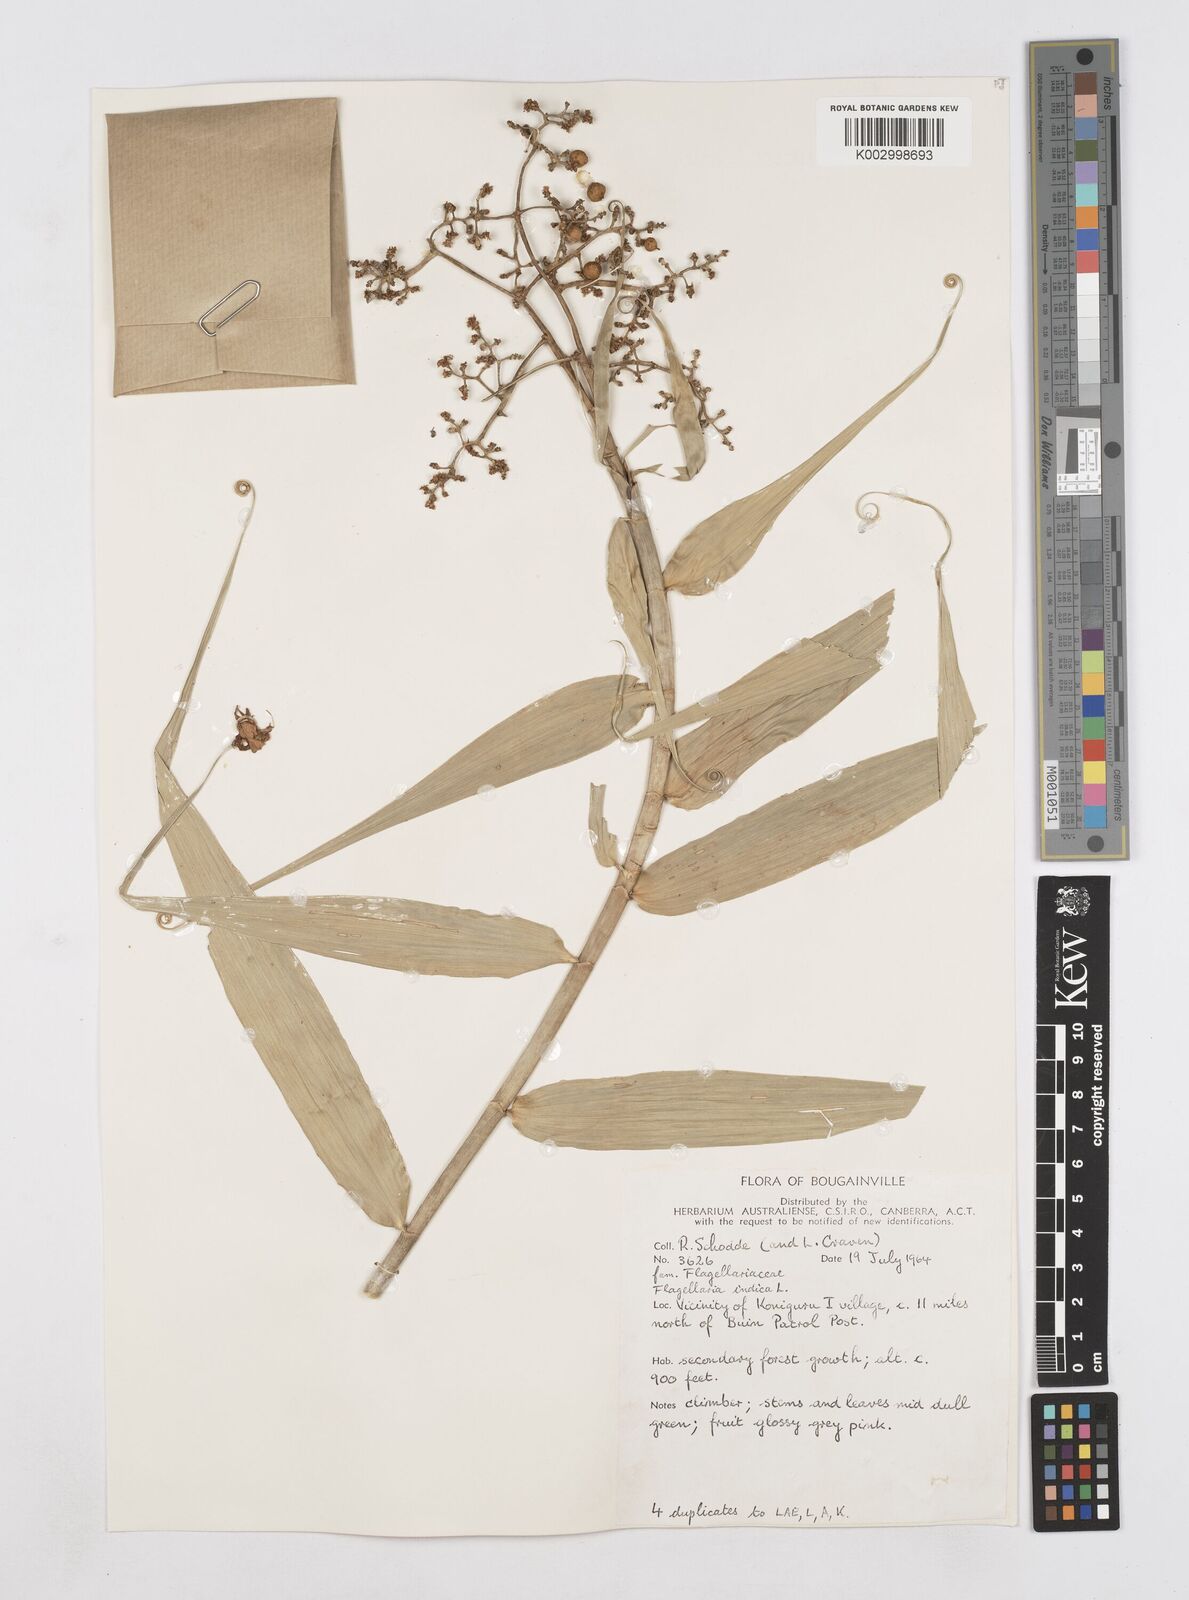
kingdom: Plantae
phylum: Tracheophyta
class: Liliopsida
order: Poales
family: Flagellariaceae
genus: Flagellaria
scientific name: Flagellaria indica
